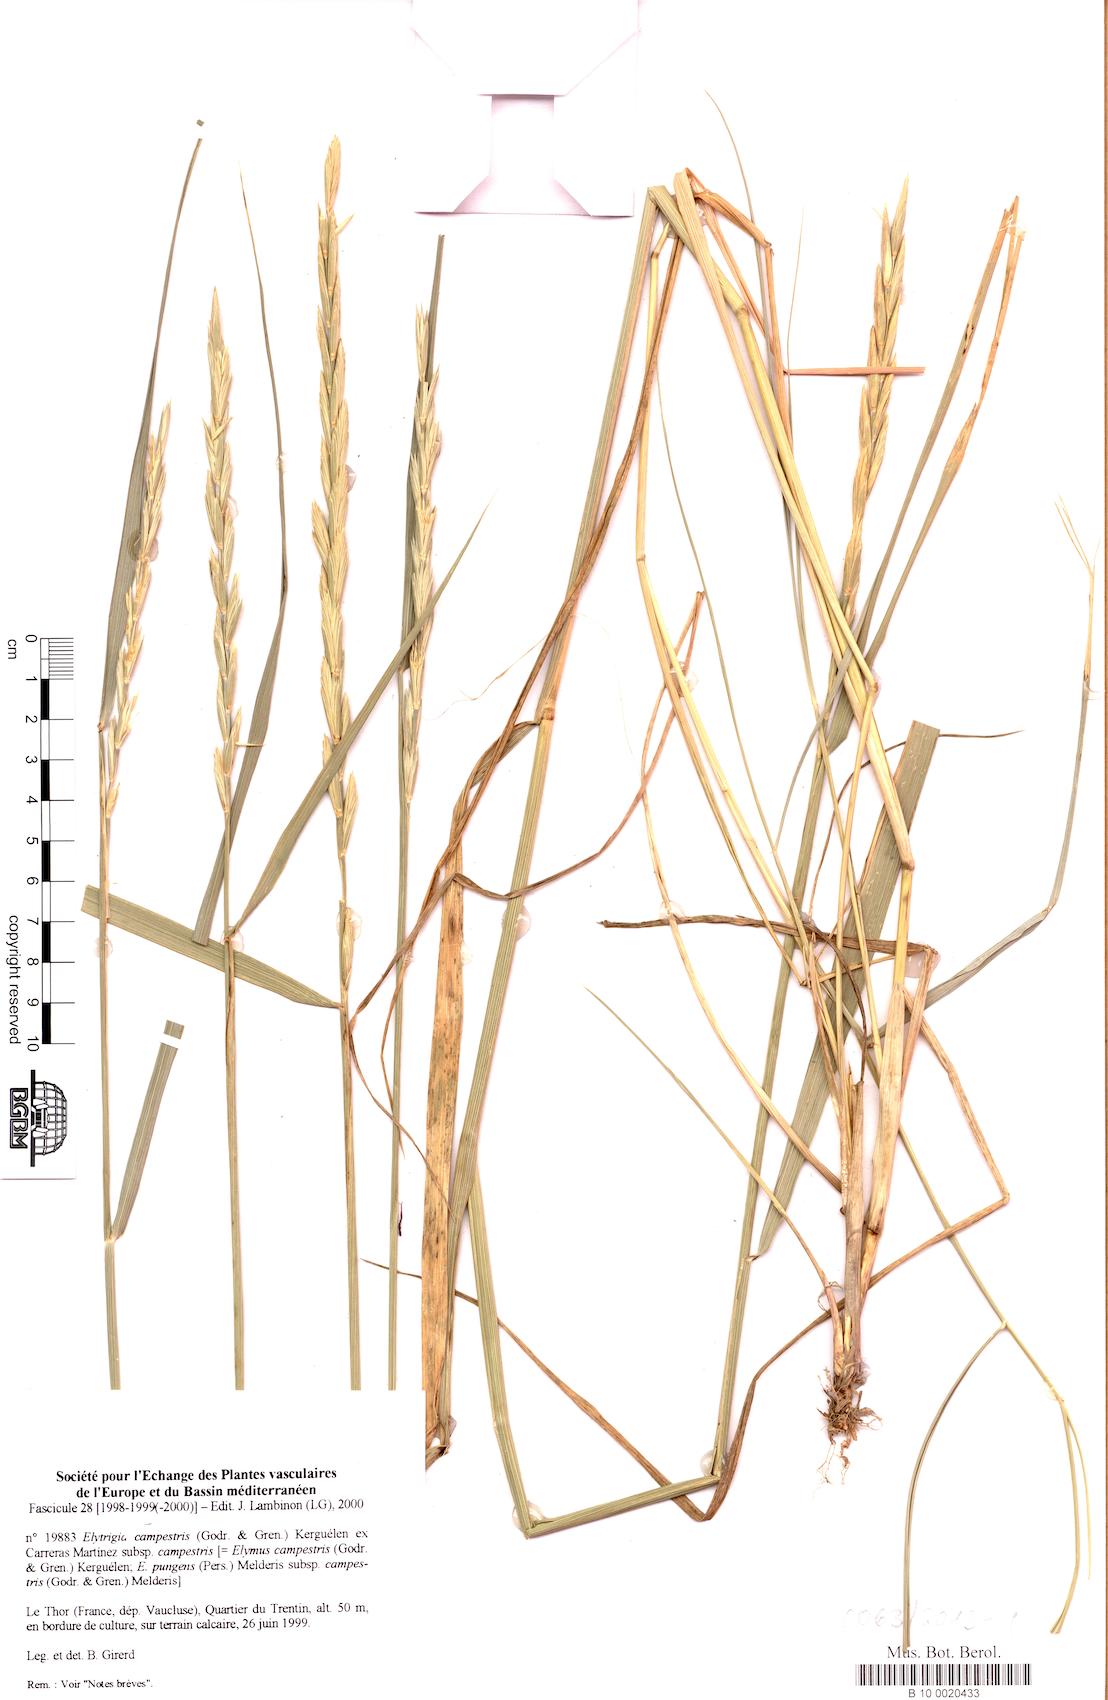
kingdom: Plantae
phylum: Tracheophyta
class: Liliopsida
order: Poales
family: Poaceae
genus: Elymus
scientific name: Elymus pungens
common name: Sea couch
